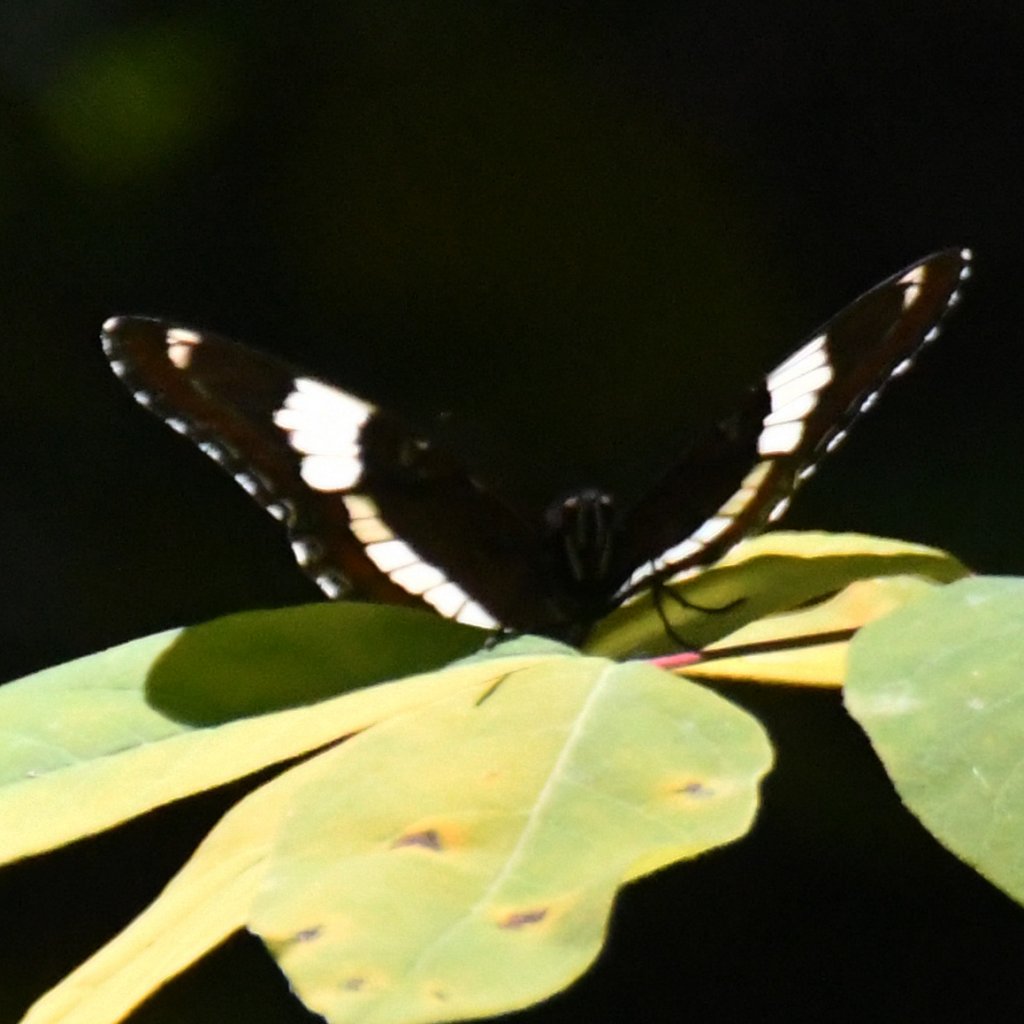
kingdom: Animalia
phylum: Arthropoda
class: Insecta
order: Lepidoptera
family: Nymphalidae
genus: Limenitis
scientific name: Limenitis arthemis
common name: Red-spotted Admiral
